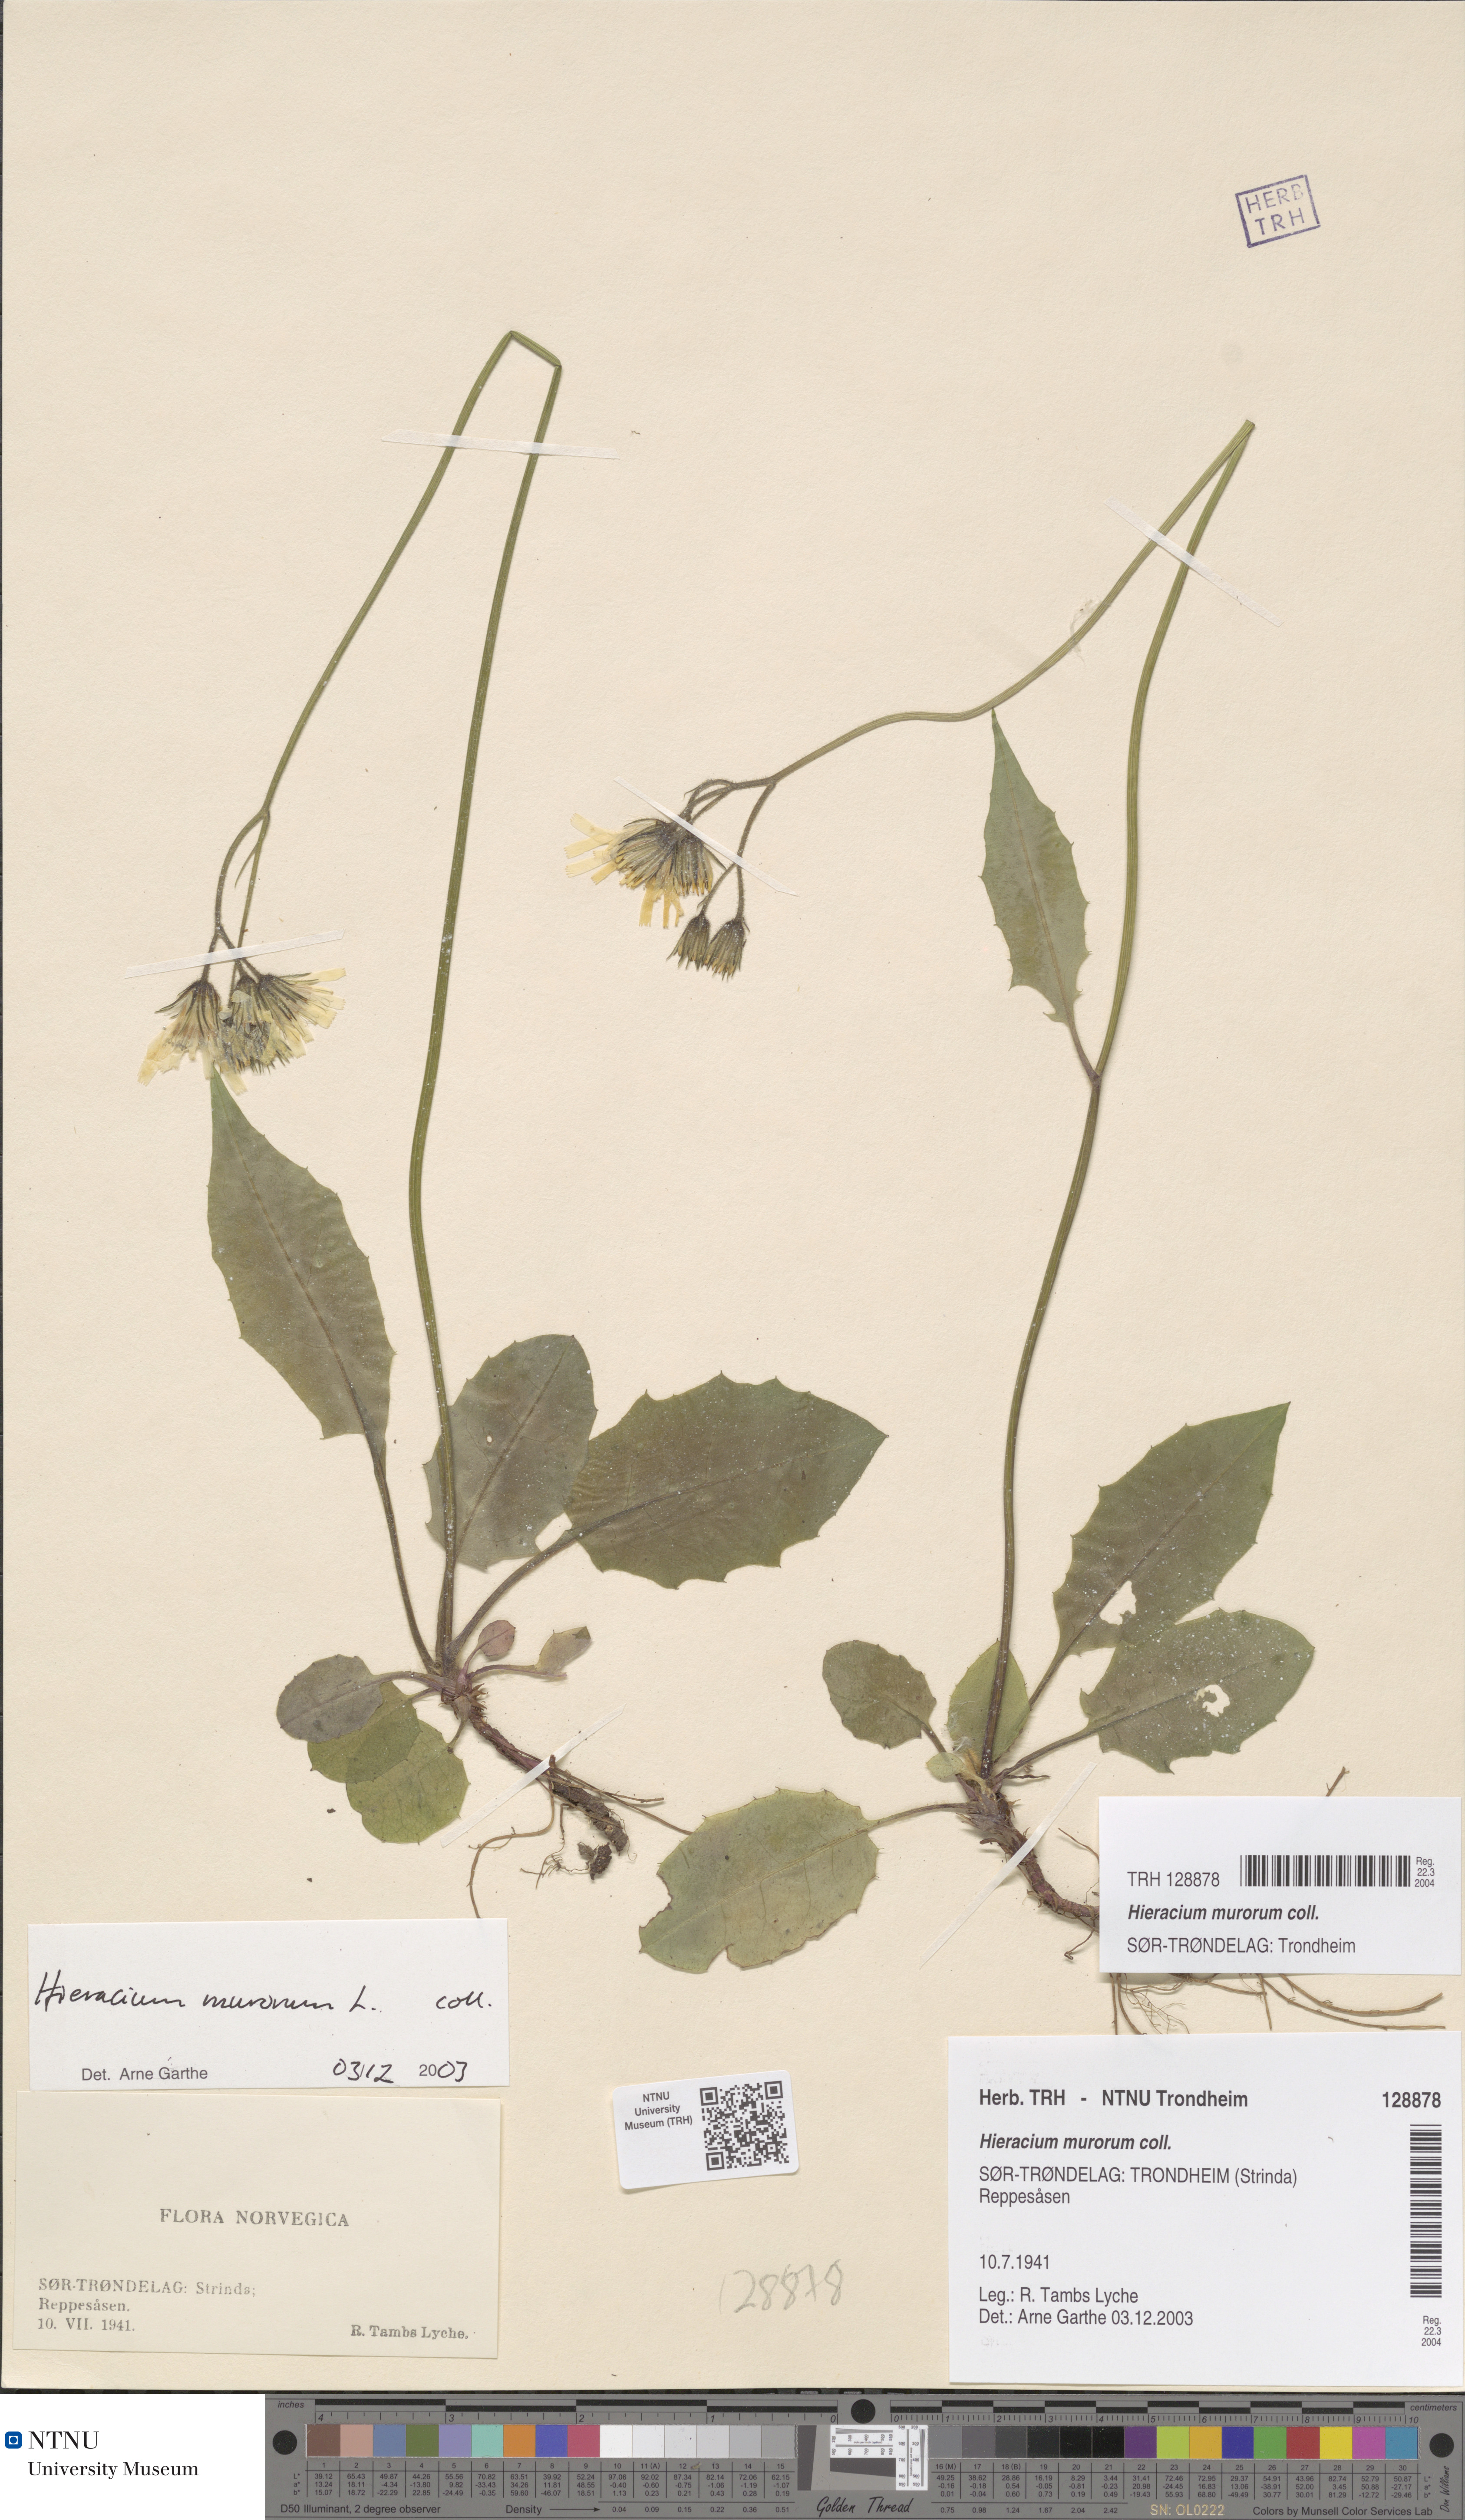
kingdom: Plantae
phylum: Tracheophyta
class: Magnoliopsida
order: Asterales
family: Asteraceae
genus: Hieracium
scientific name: Hieracium murorum
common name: Wall hawkweed
